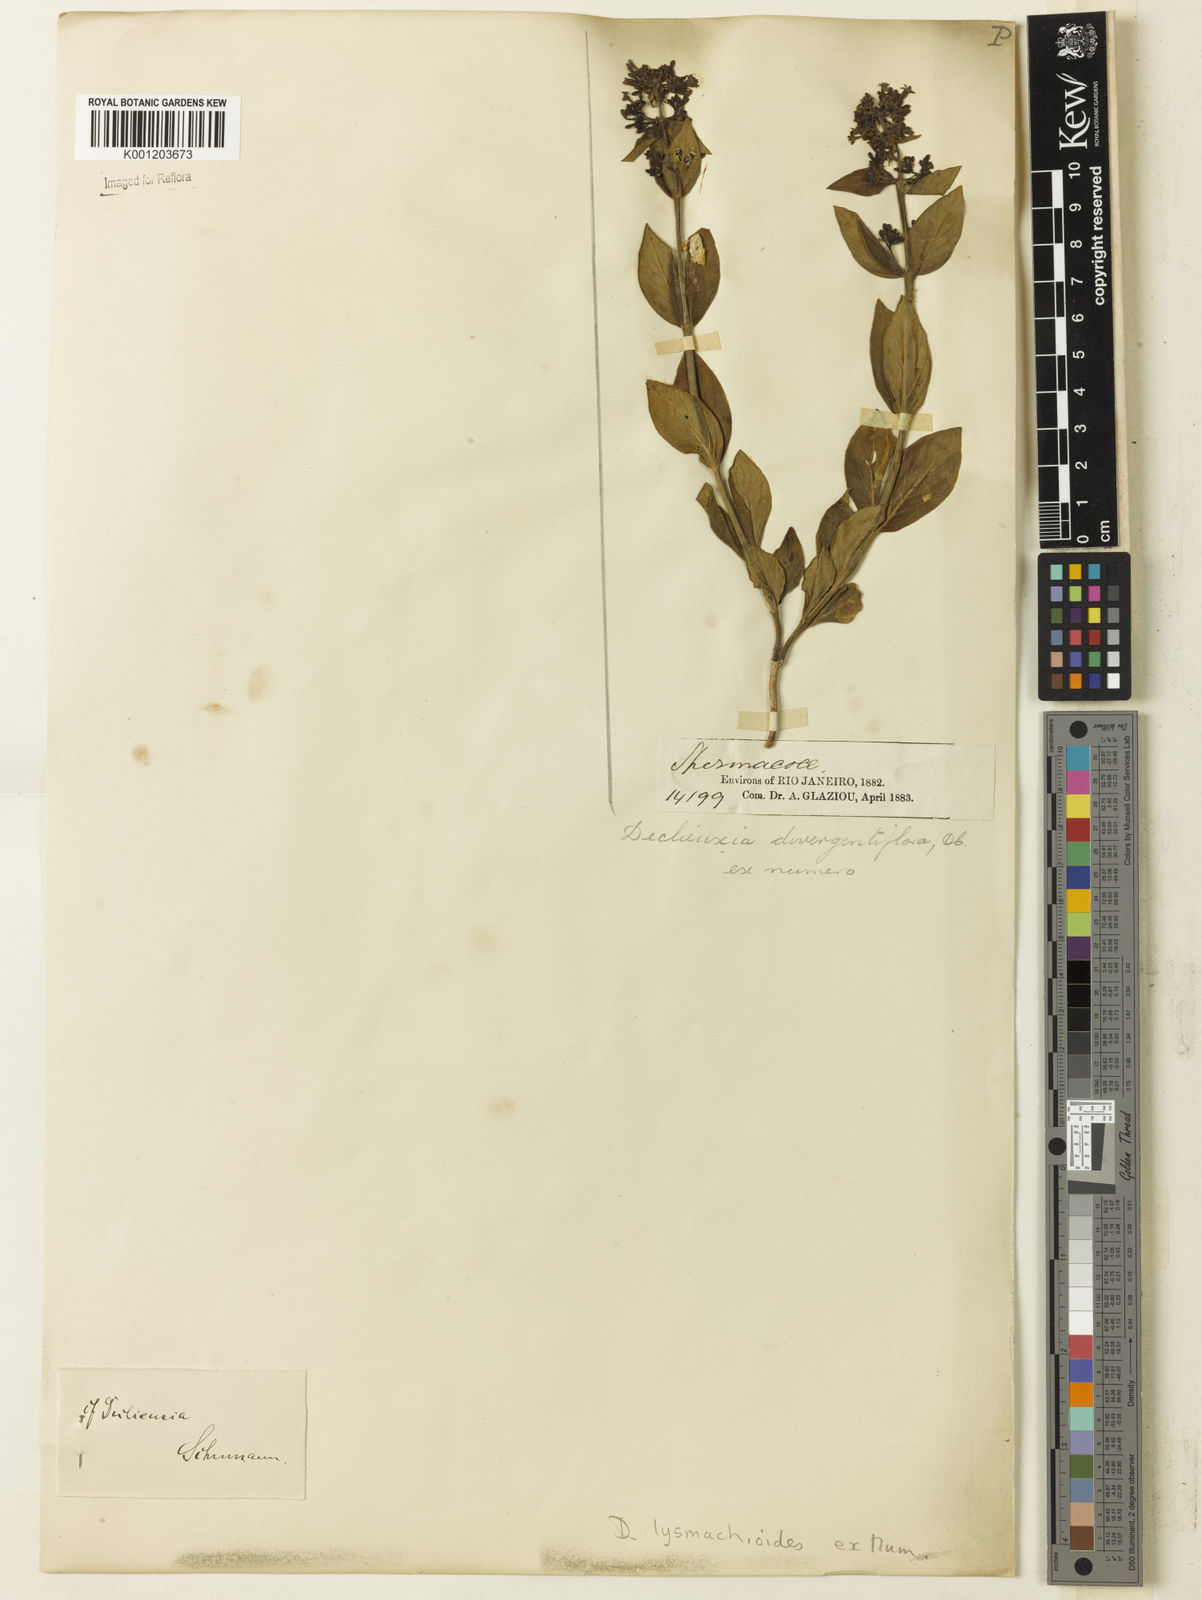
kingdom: Plantae
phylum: Tracheophyta
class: Magnoliopsida
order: Gentianales
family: Rubiaceae
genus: Declieuxia
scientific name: Declieuxia
